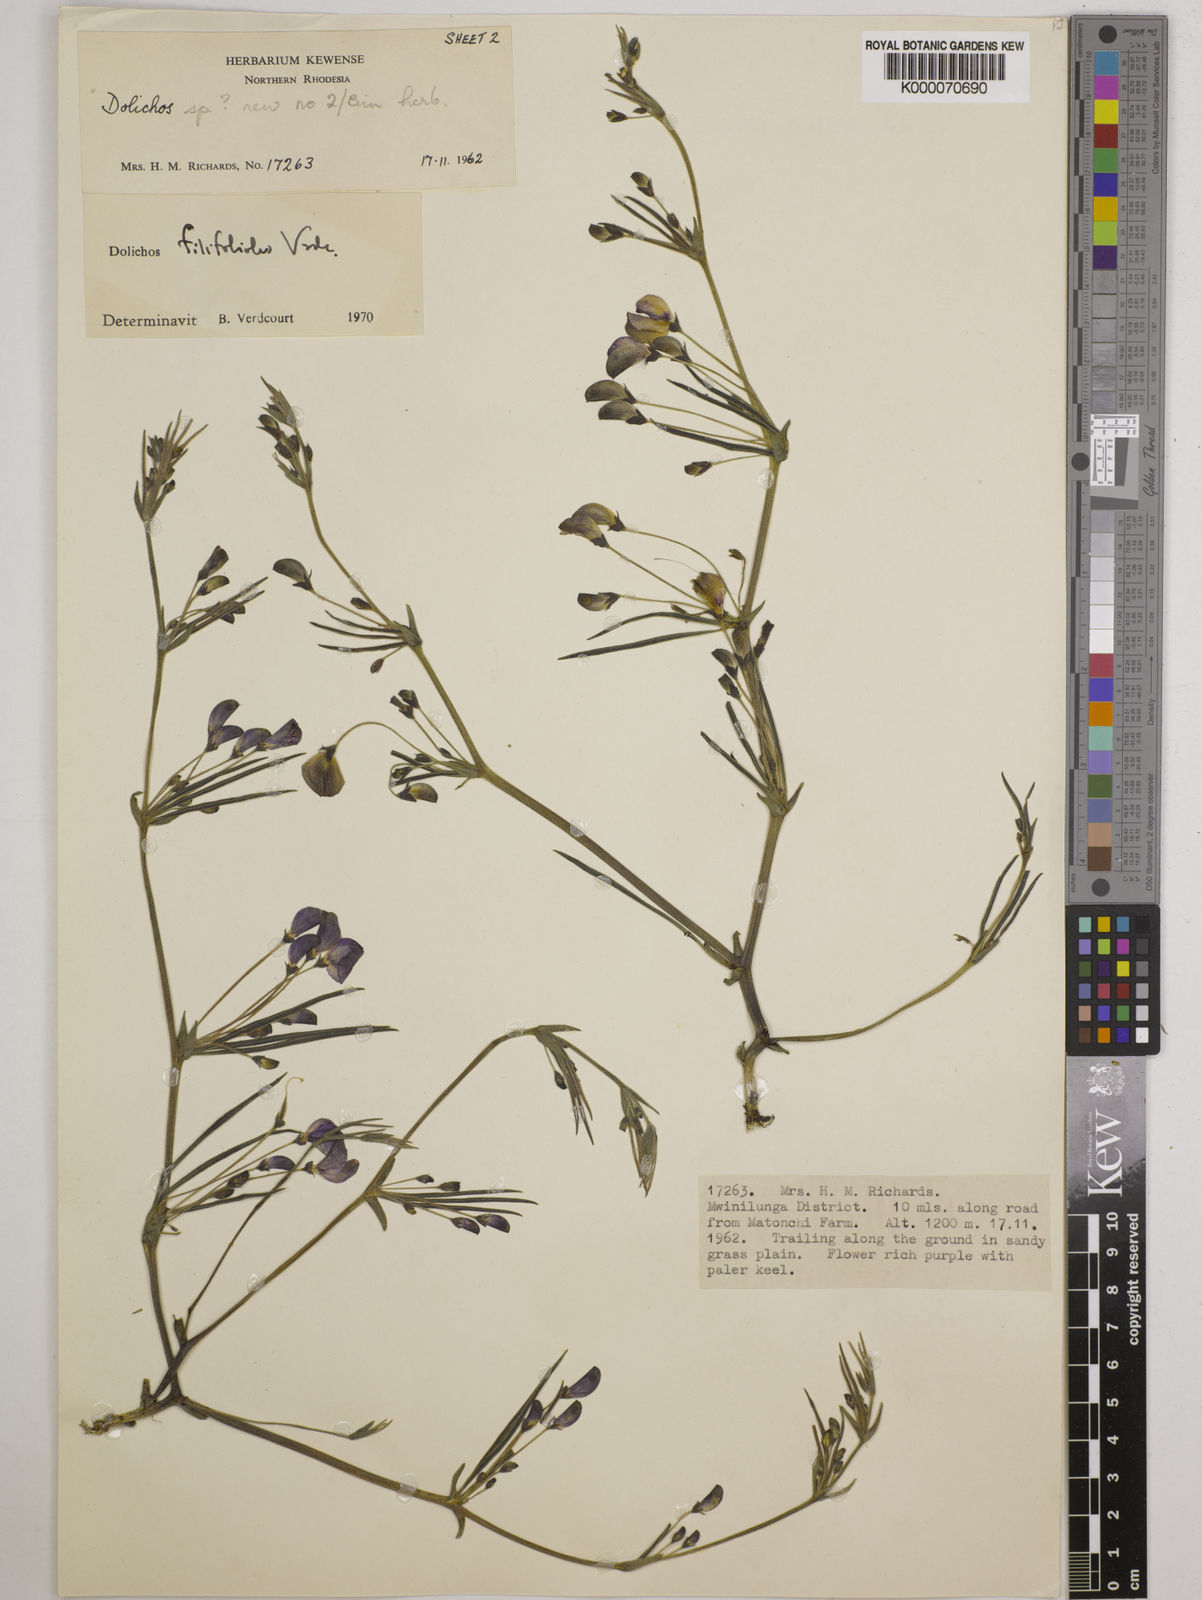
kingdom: Plantae
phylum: Tracheophyta
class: Magnoliopsida
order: Fabales
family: Fabaceae
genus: Dolichos
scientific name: Dolichos filifoliolus
